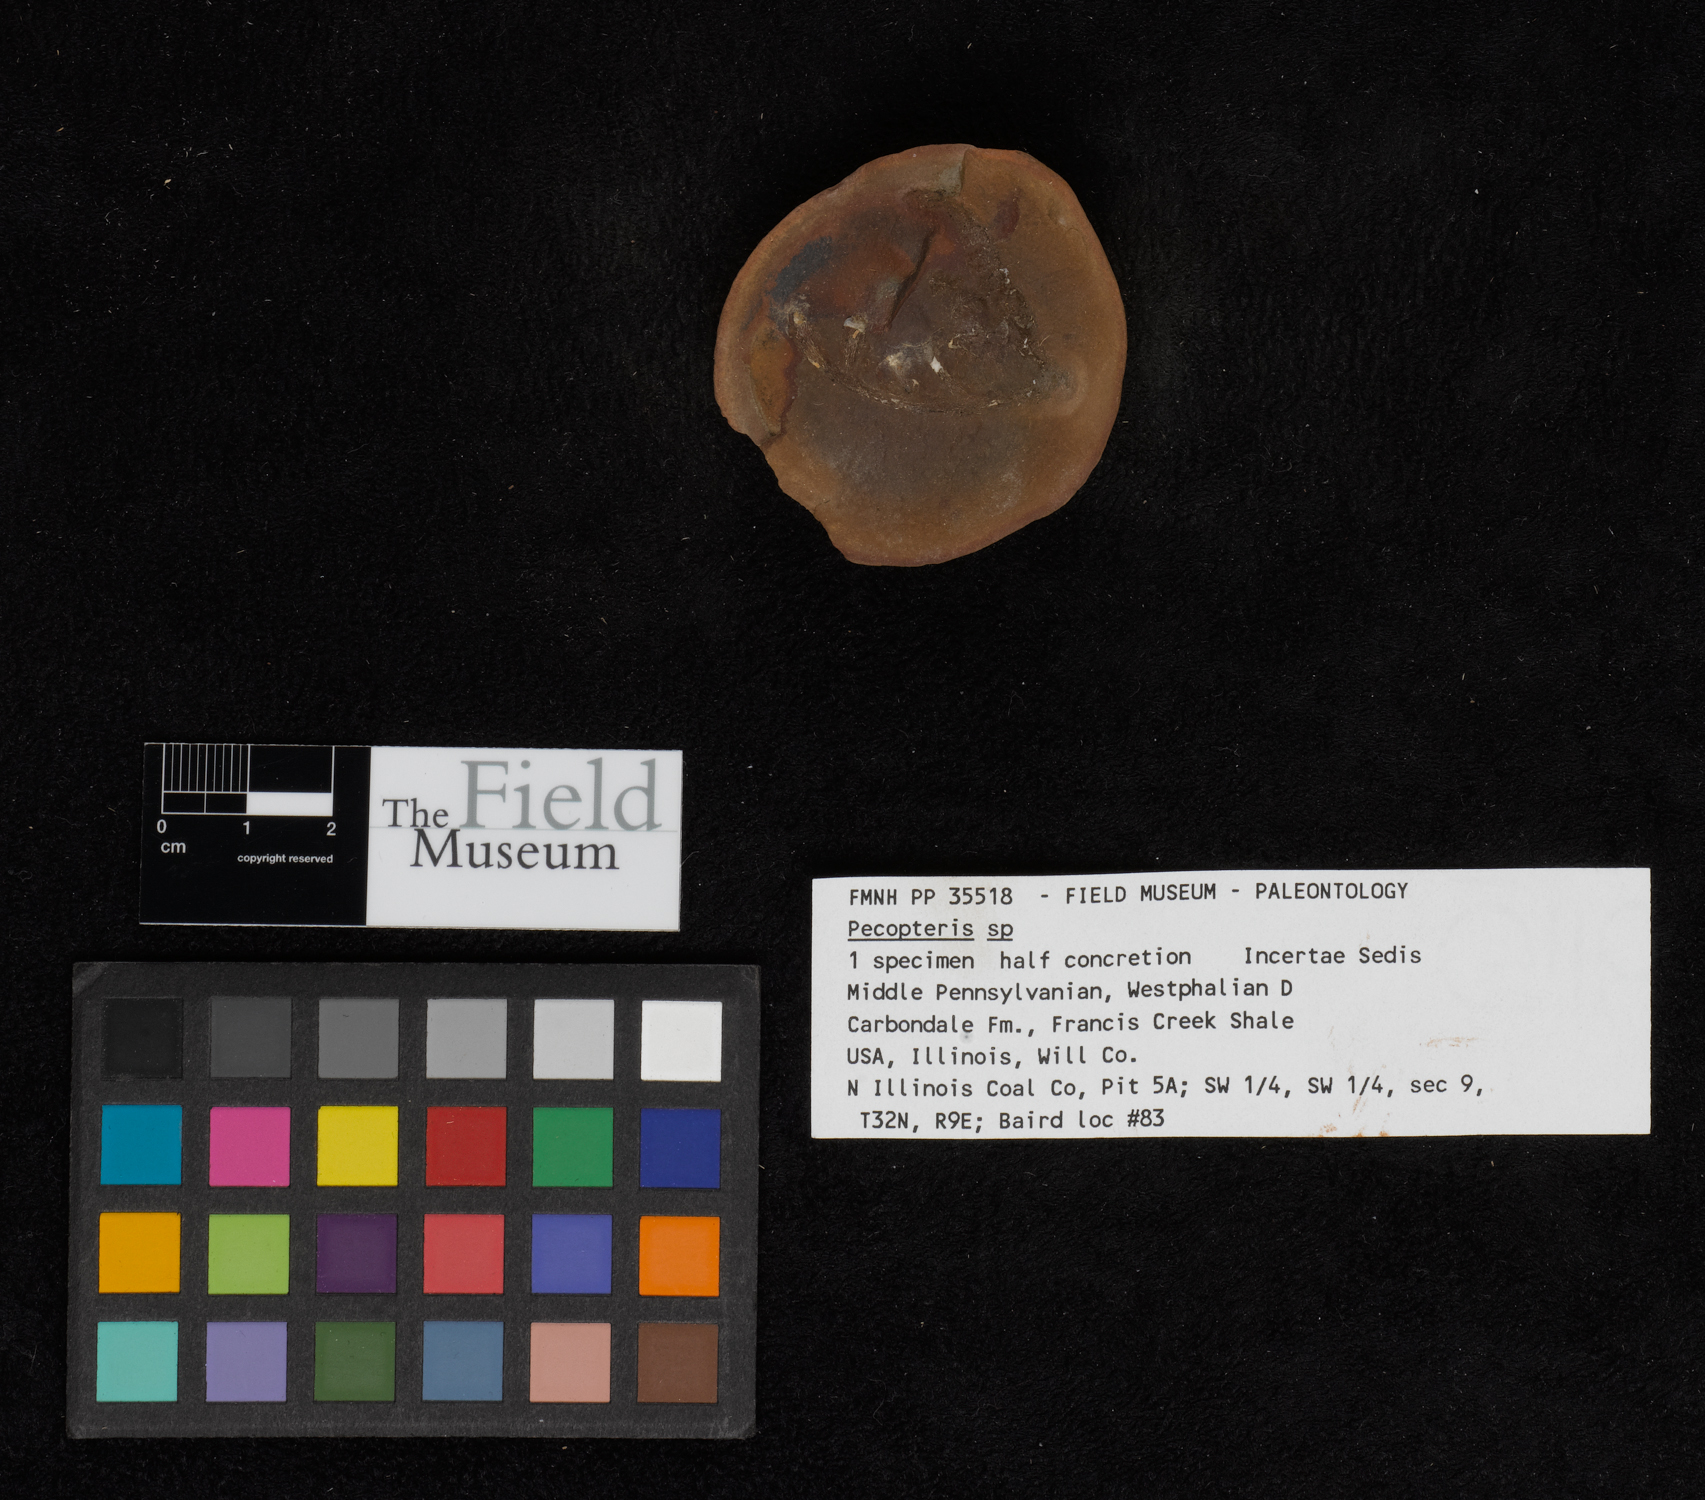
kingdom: Plantae
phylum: Tracheophyta
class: Polypodiopsida
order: Marattiales
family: Asterothecaceae
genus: Pecopteris
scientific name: Pecopteris
